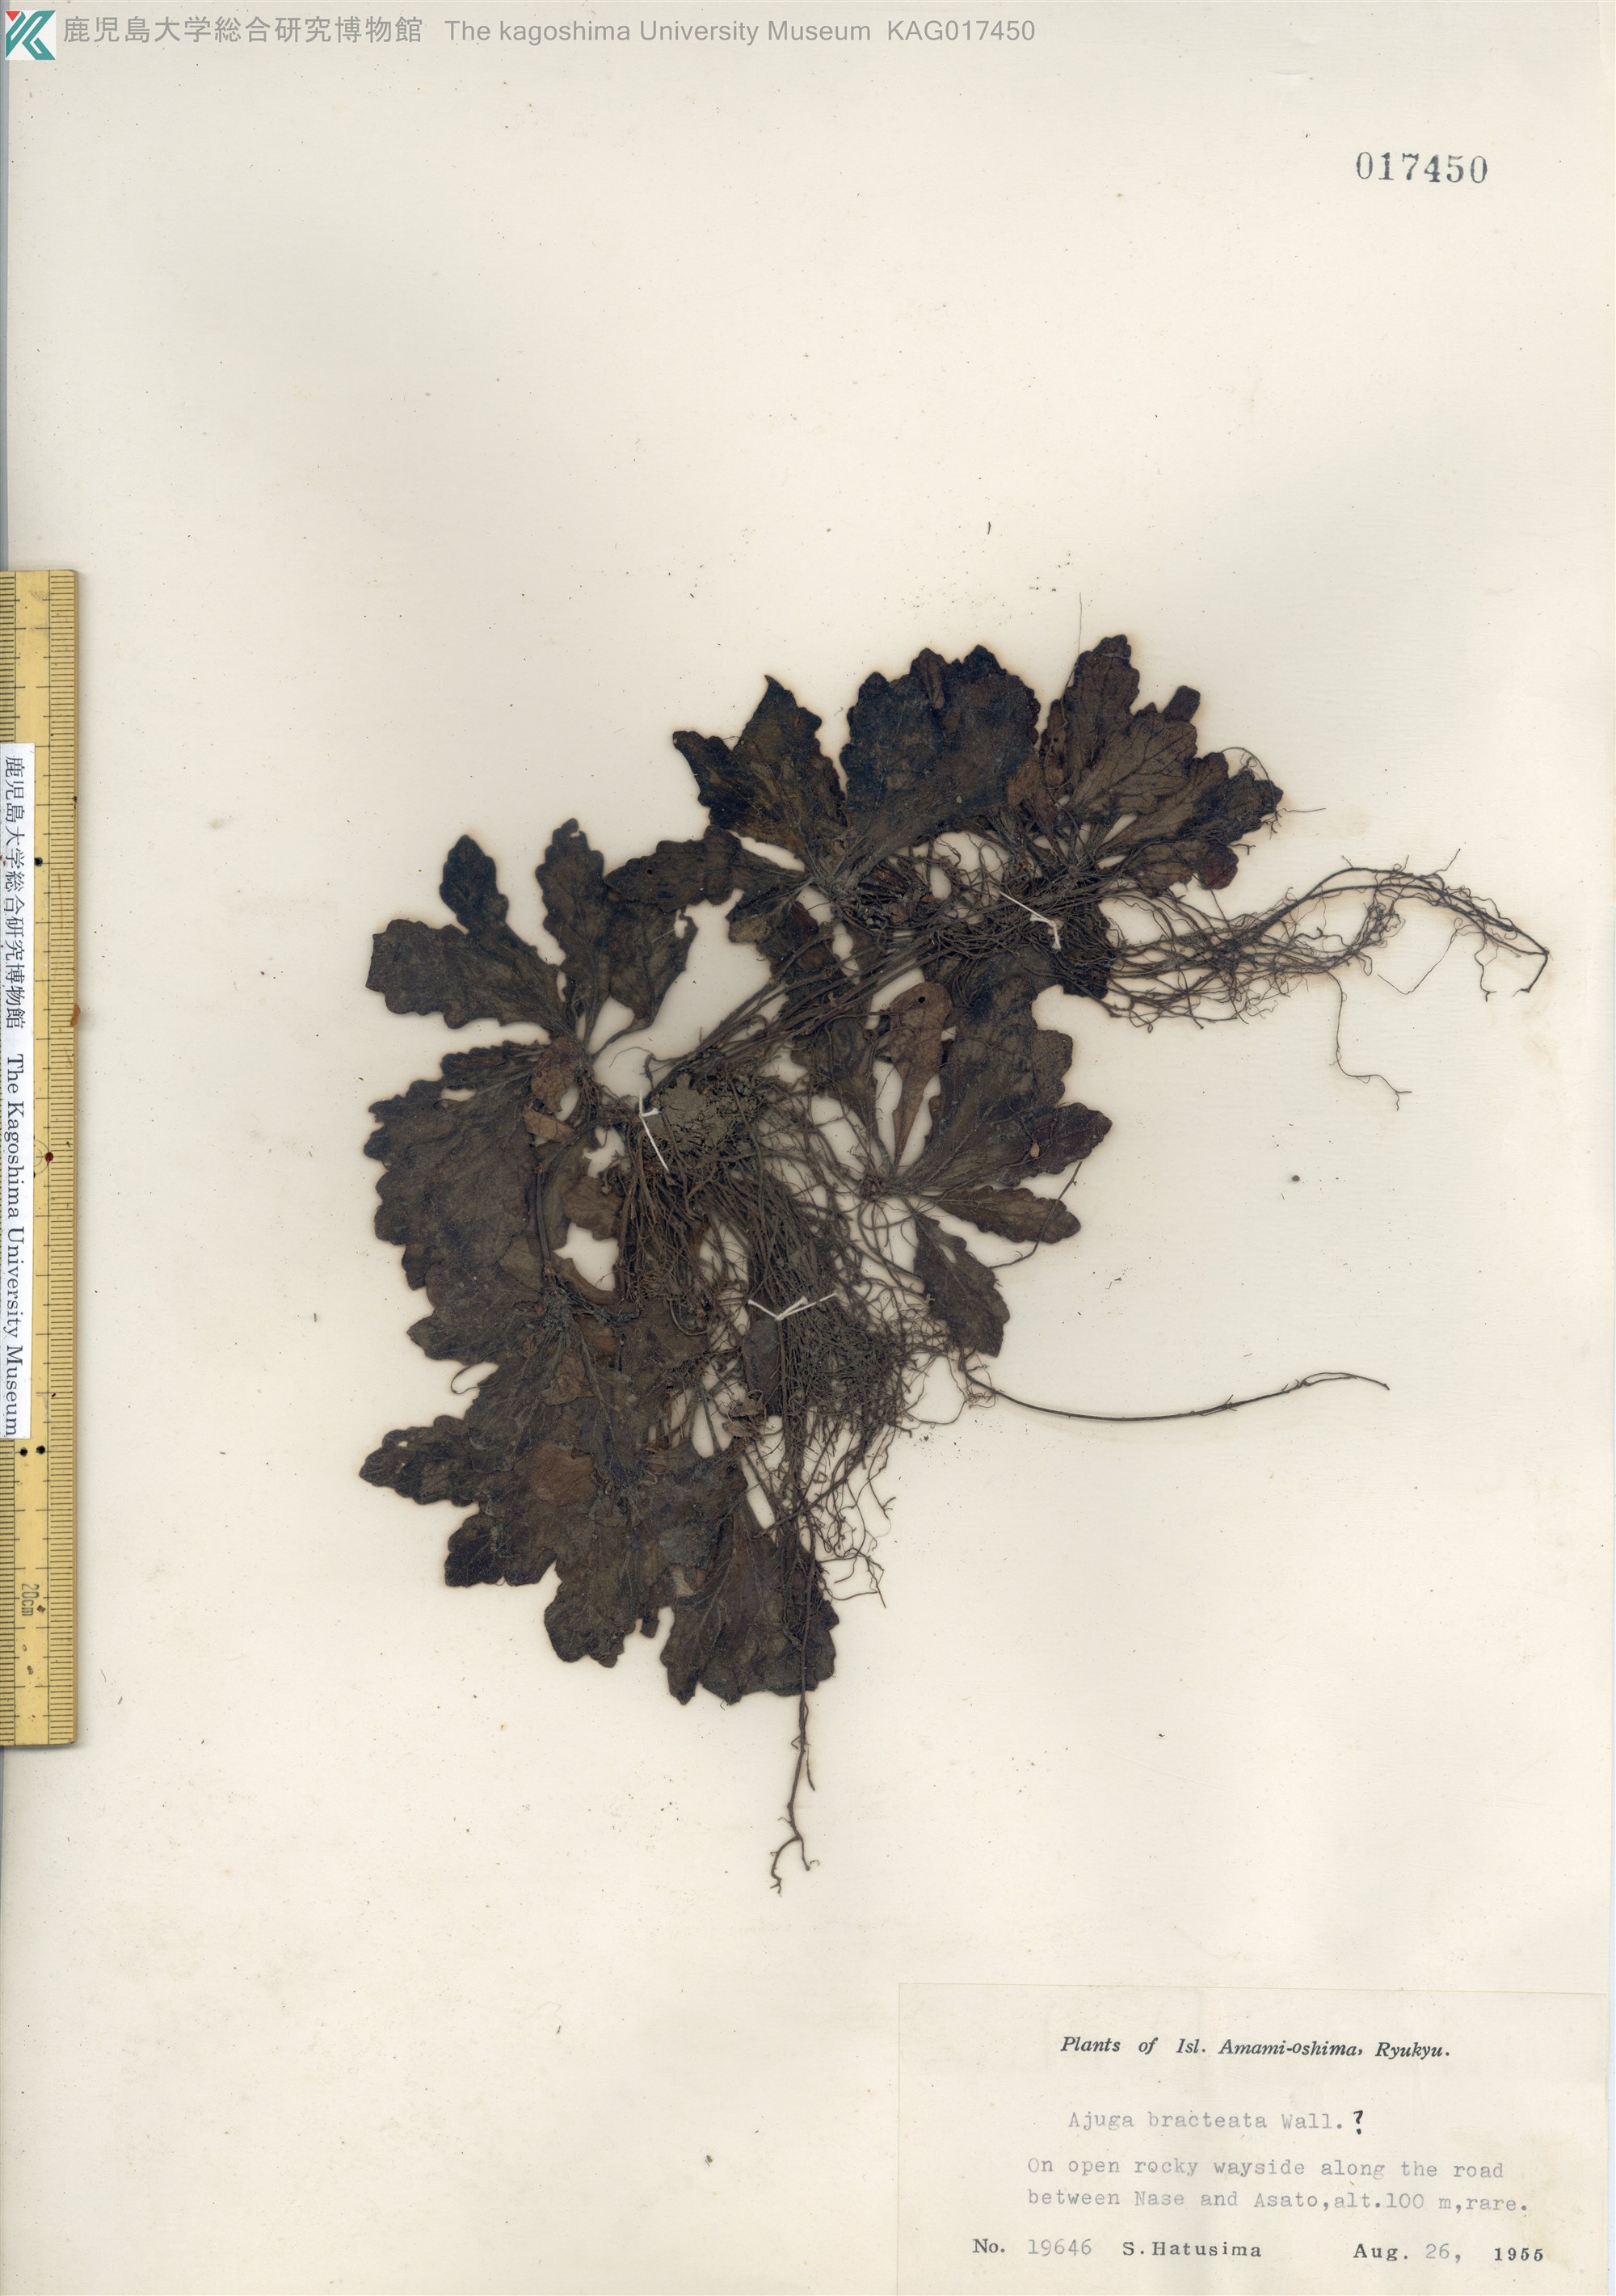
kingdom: Plantae
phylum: Tracheophyta
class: Magnoliopsida
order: Lamiales
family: Lamiaceae
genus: Ajuga
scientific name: Ajuga decumbens
